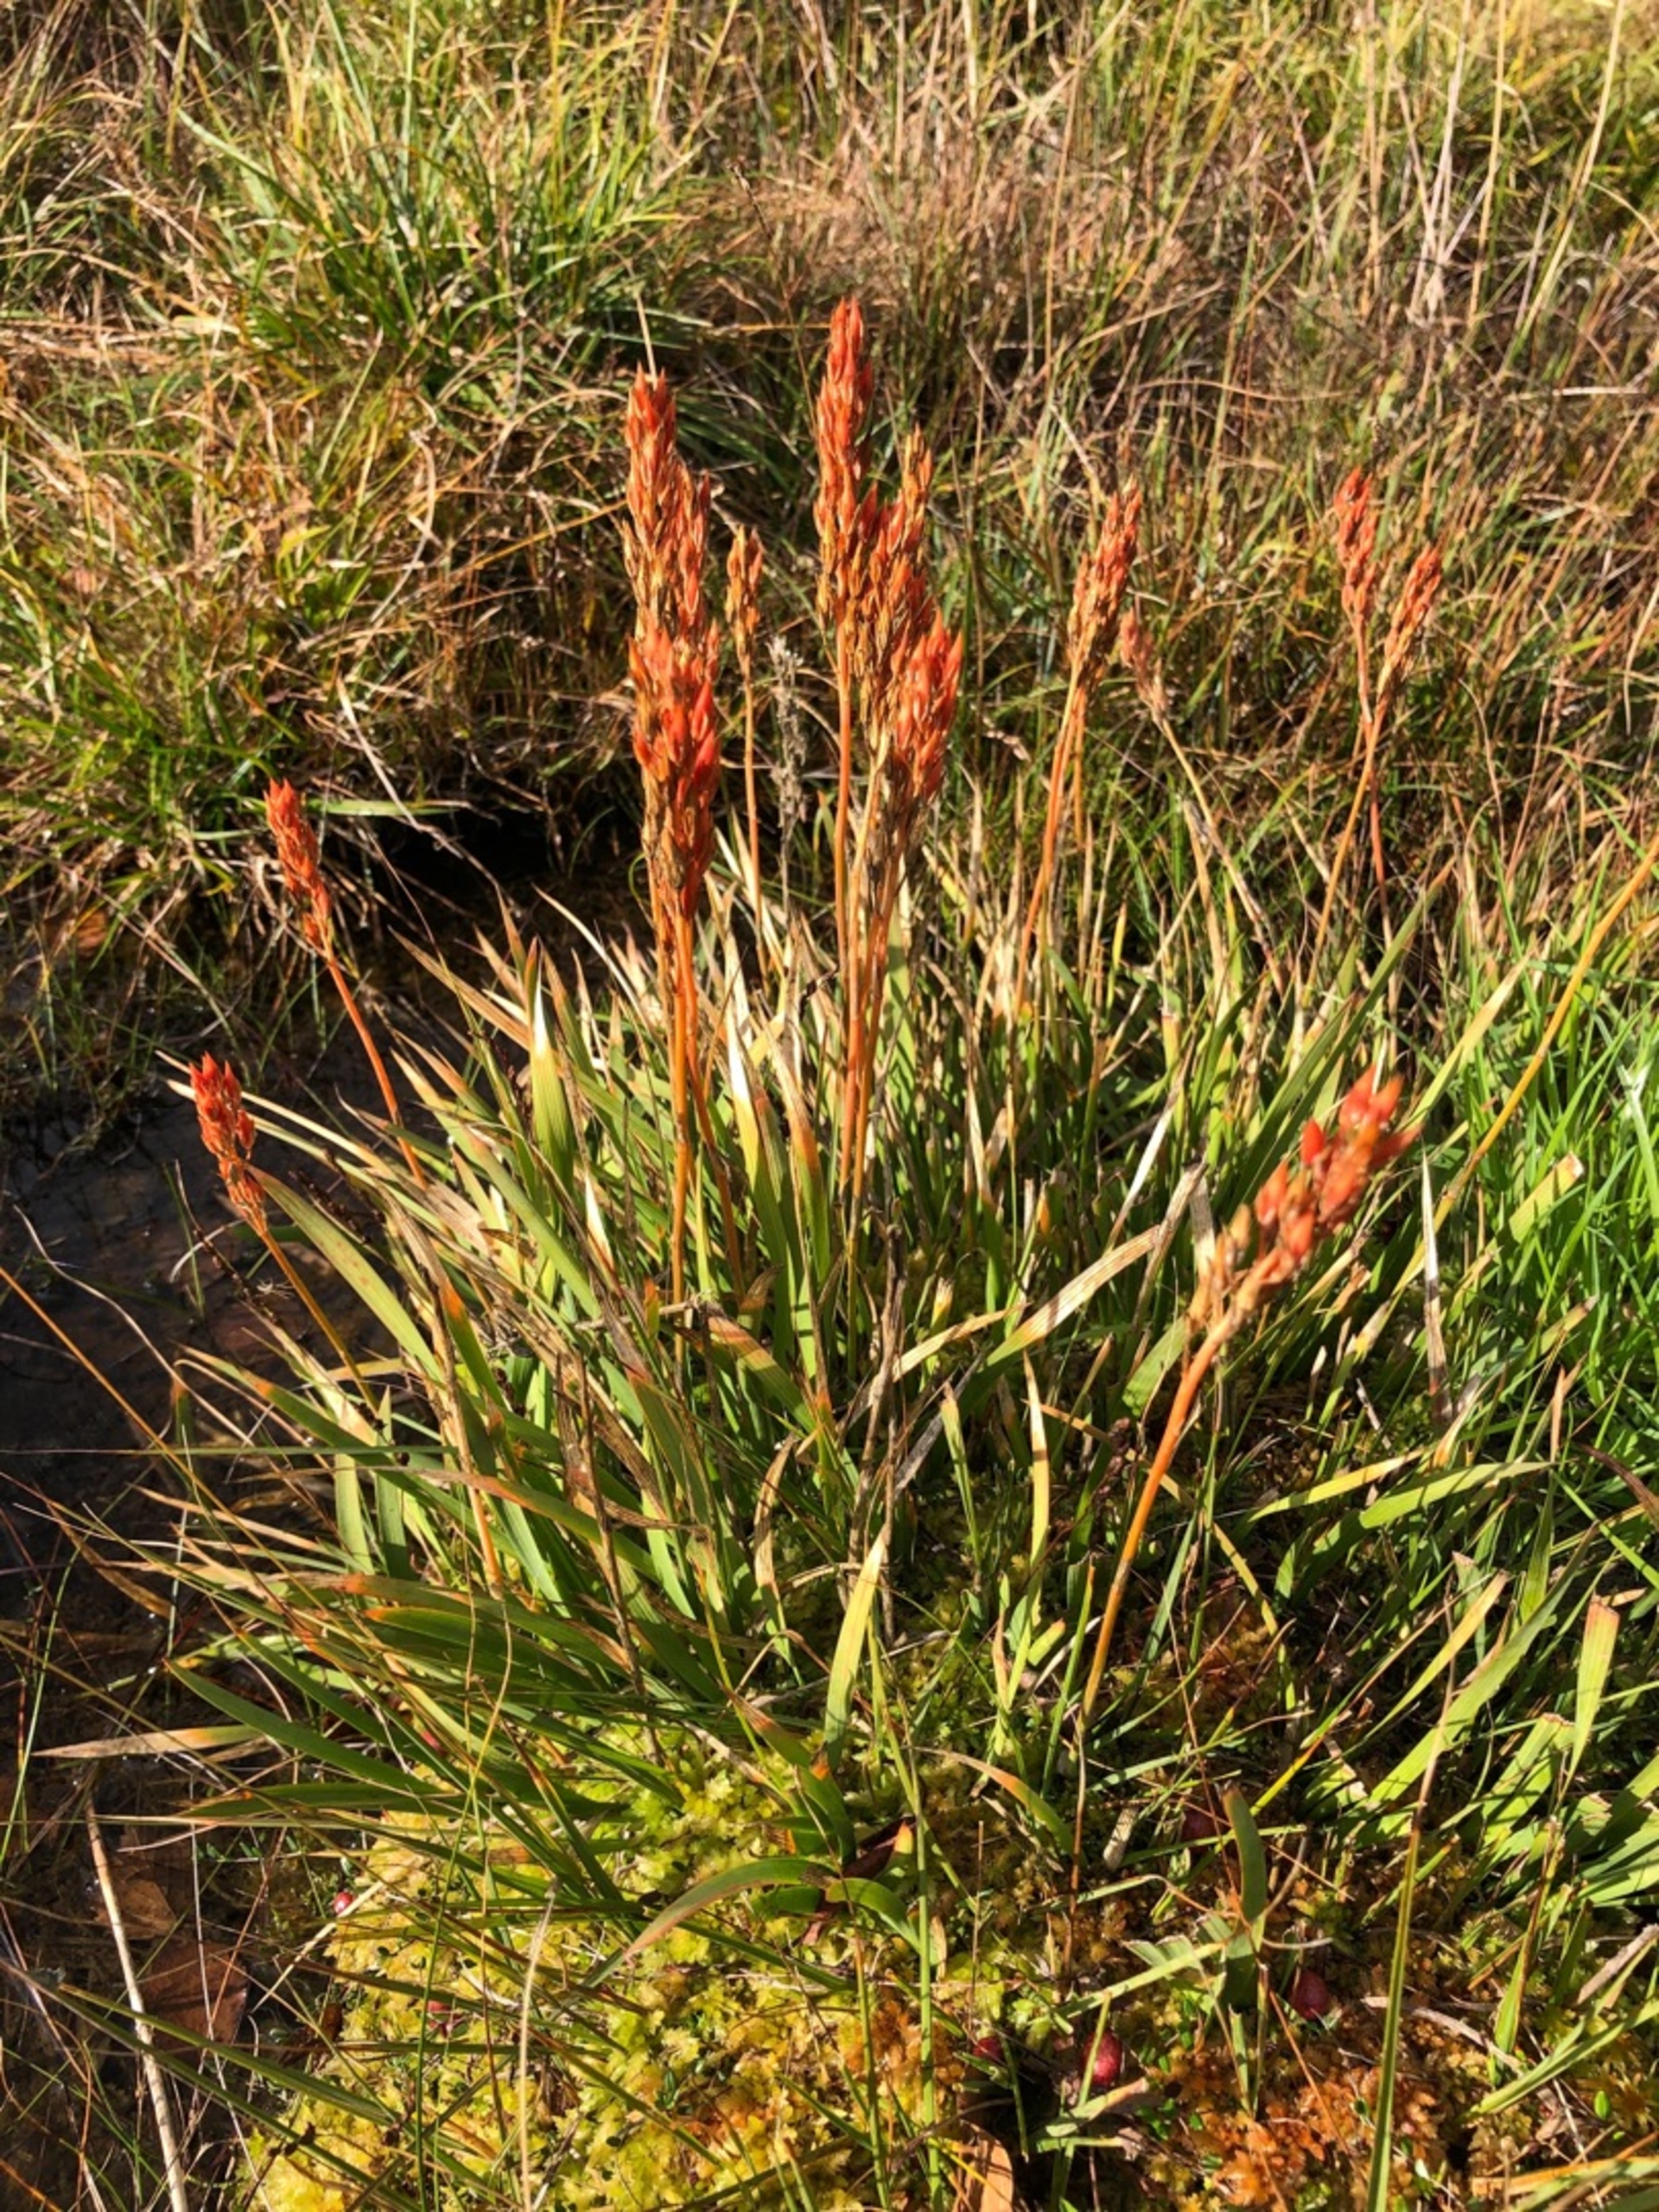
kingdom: Plantae
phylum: Tracheophyta
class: Liliopsida
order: Dioscoreales
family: Nartheciaceae
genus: Narthecium
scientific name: Narthecium ossifragum
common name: Benbræk
